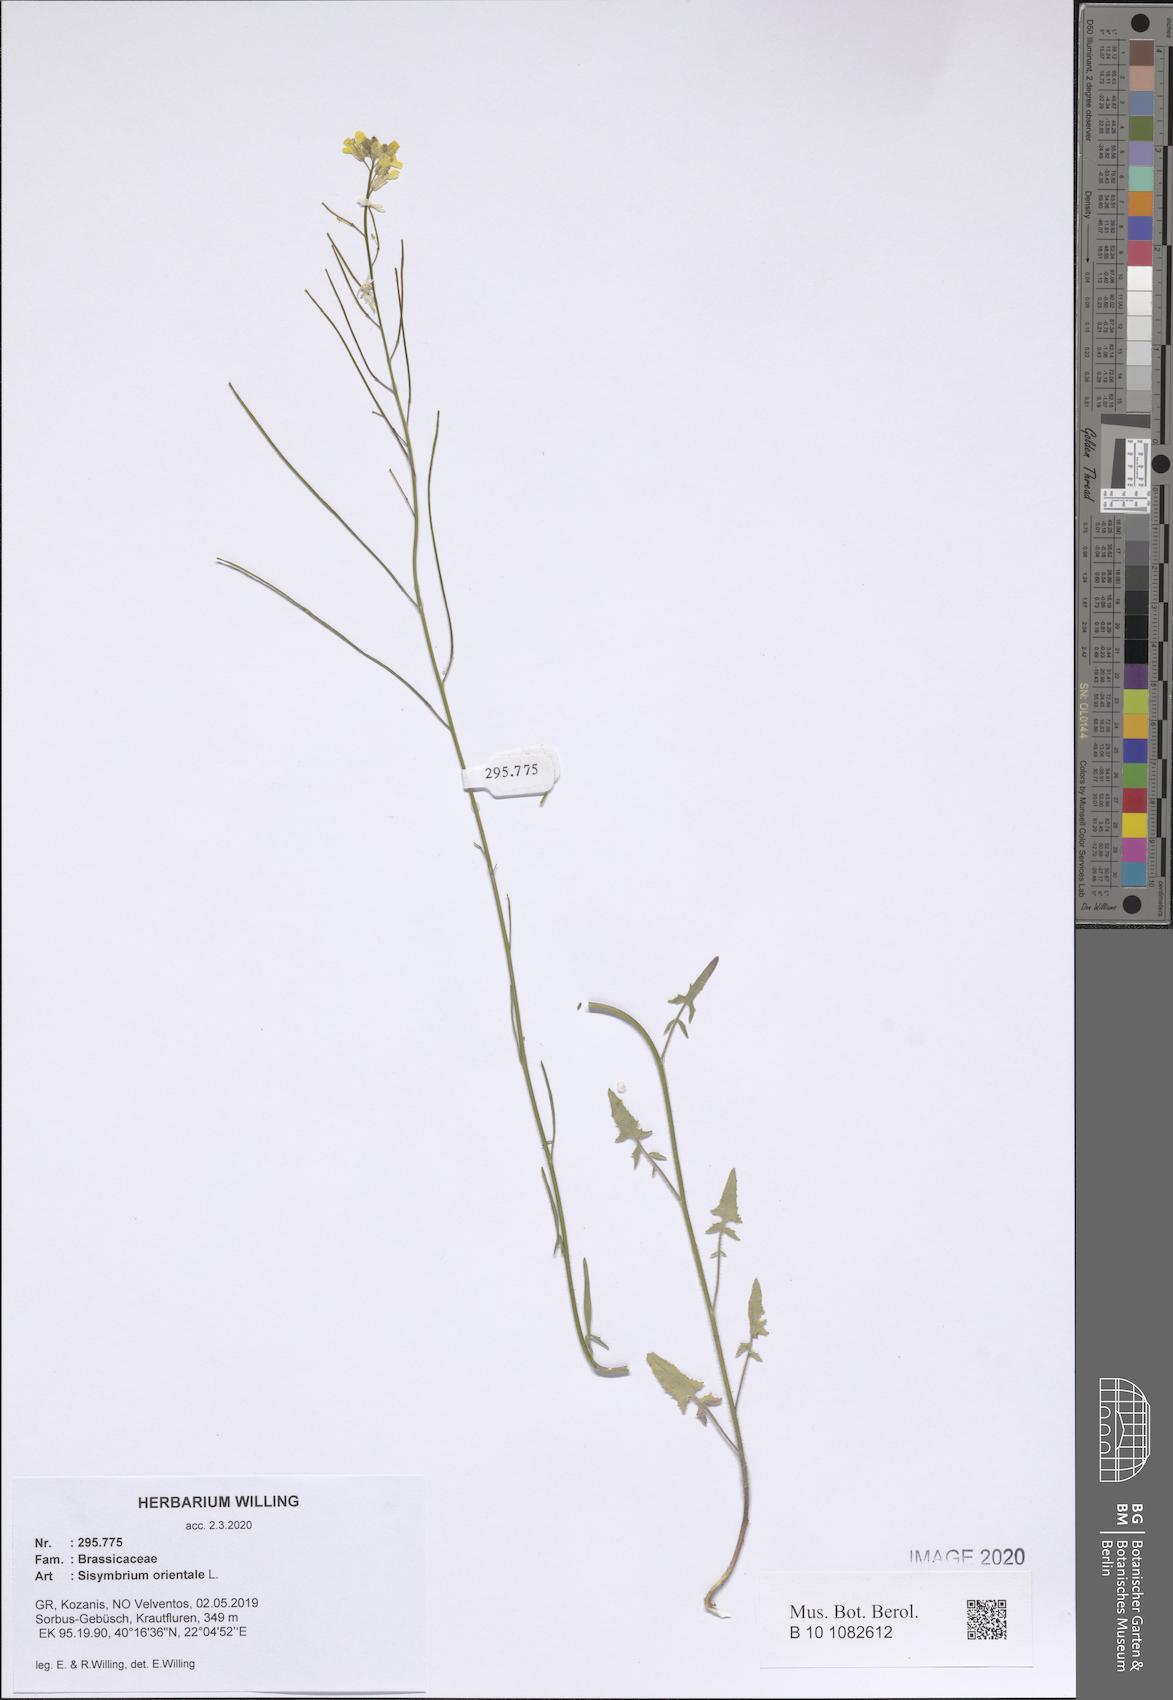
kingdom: Plantae
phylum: Tracheophyta
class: Magnoliopsida
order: Brassicales
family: Brassicaceae
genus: Sisymbrium
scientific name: Sisymbrium orientale
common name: Eastern rocket
